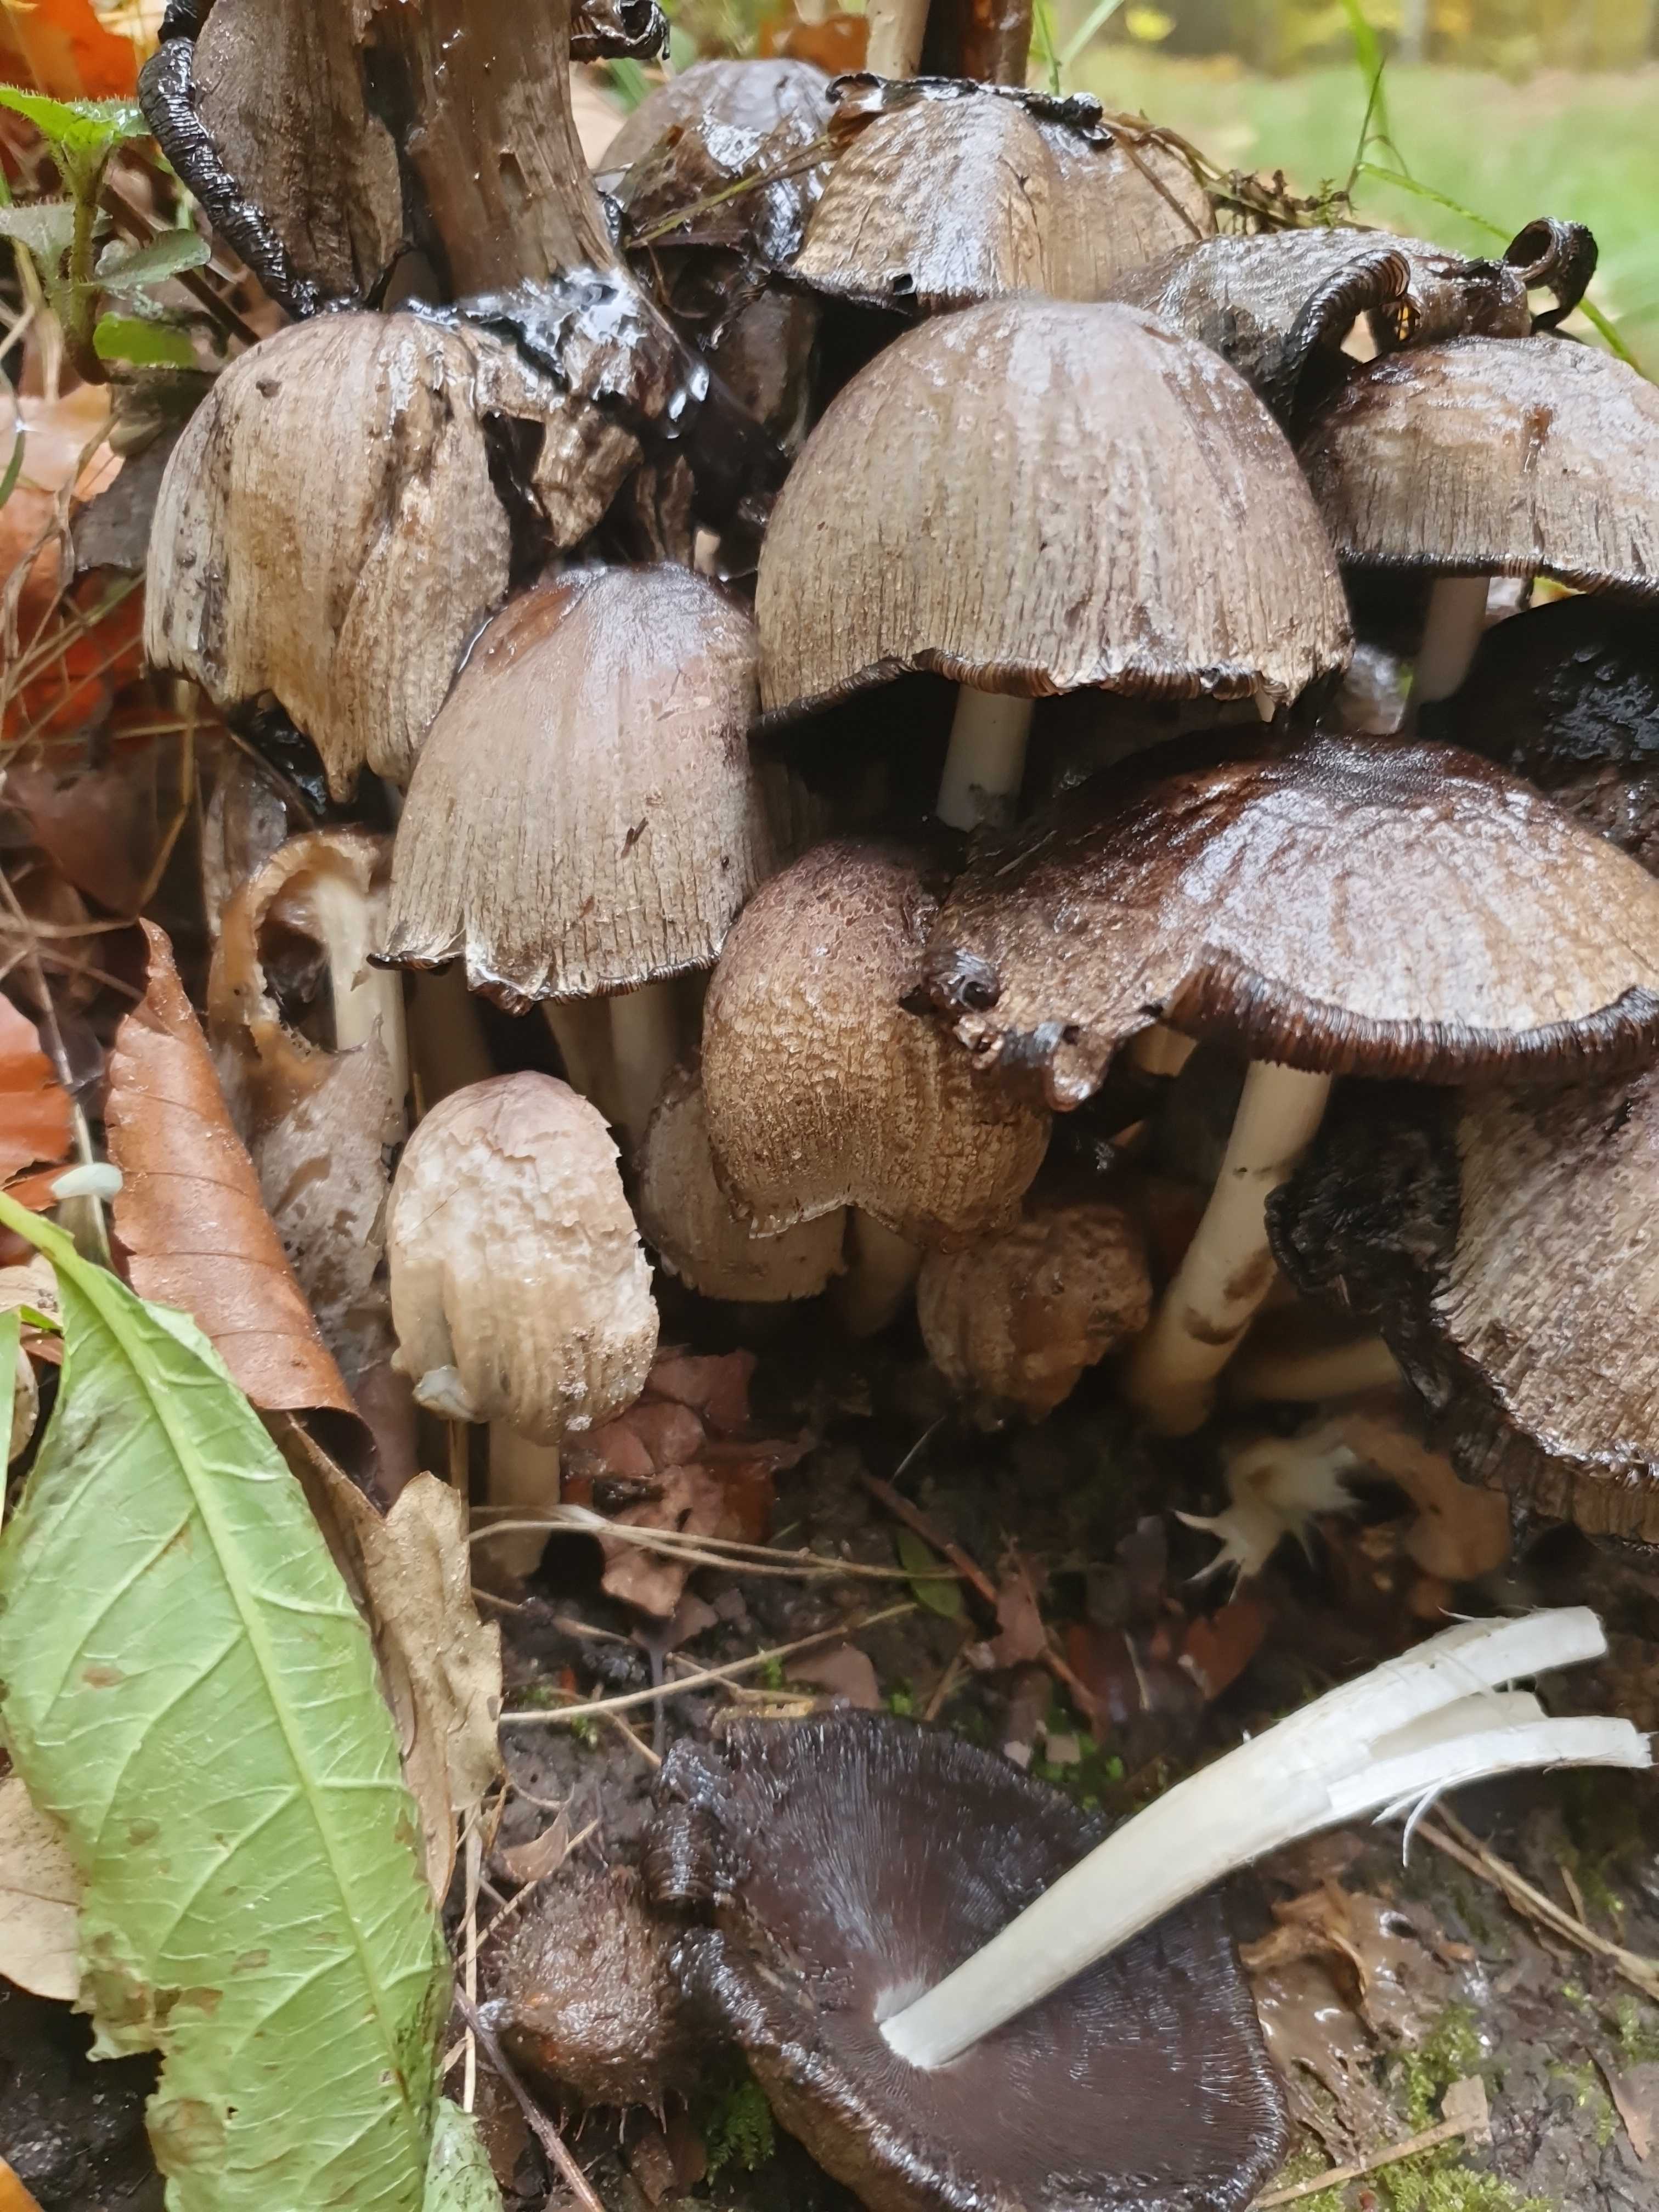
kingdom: Fungi
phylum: Basidiomycota
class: Agaricomycetes
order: Agaricales
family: Psathyrellaceae
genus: Coprinopsis
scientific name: Coprinopsis atramentaria
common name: almindelig blækhat
